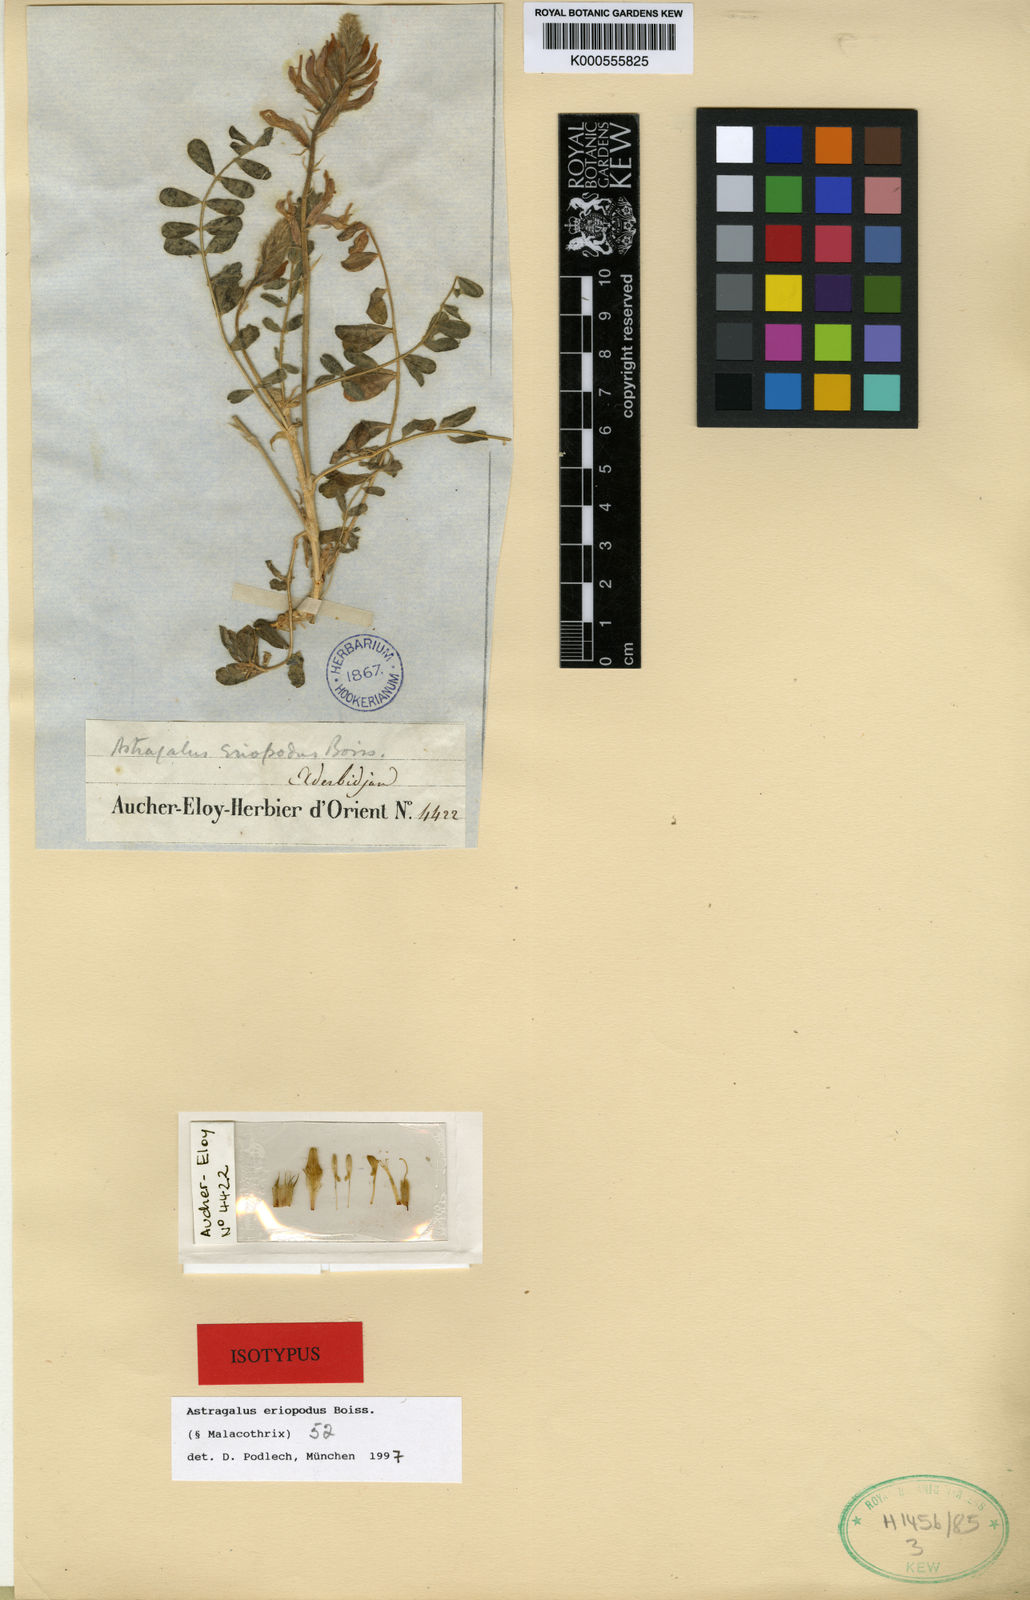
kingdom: Plantae
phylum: Tracheophyta
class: Magnoliopsida
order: Fabales
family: Fabaceae
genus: Astragalus
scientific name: Astragalus eriopodus
